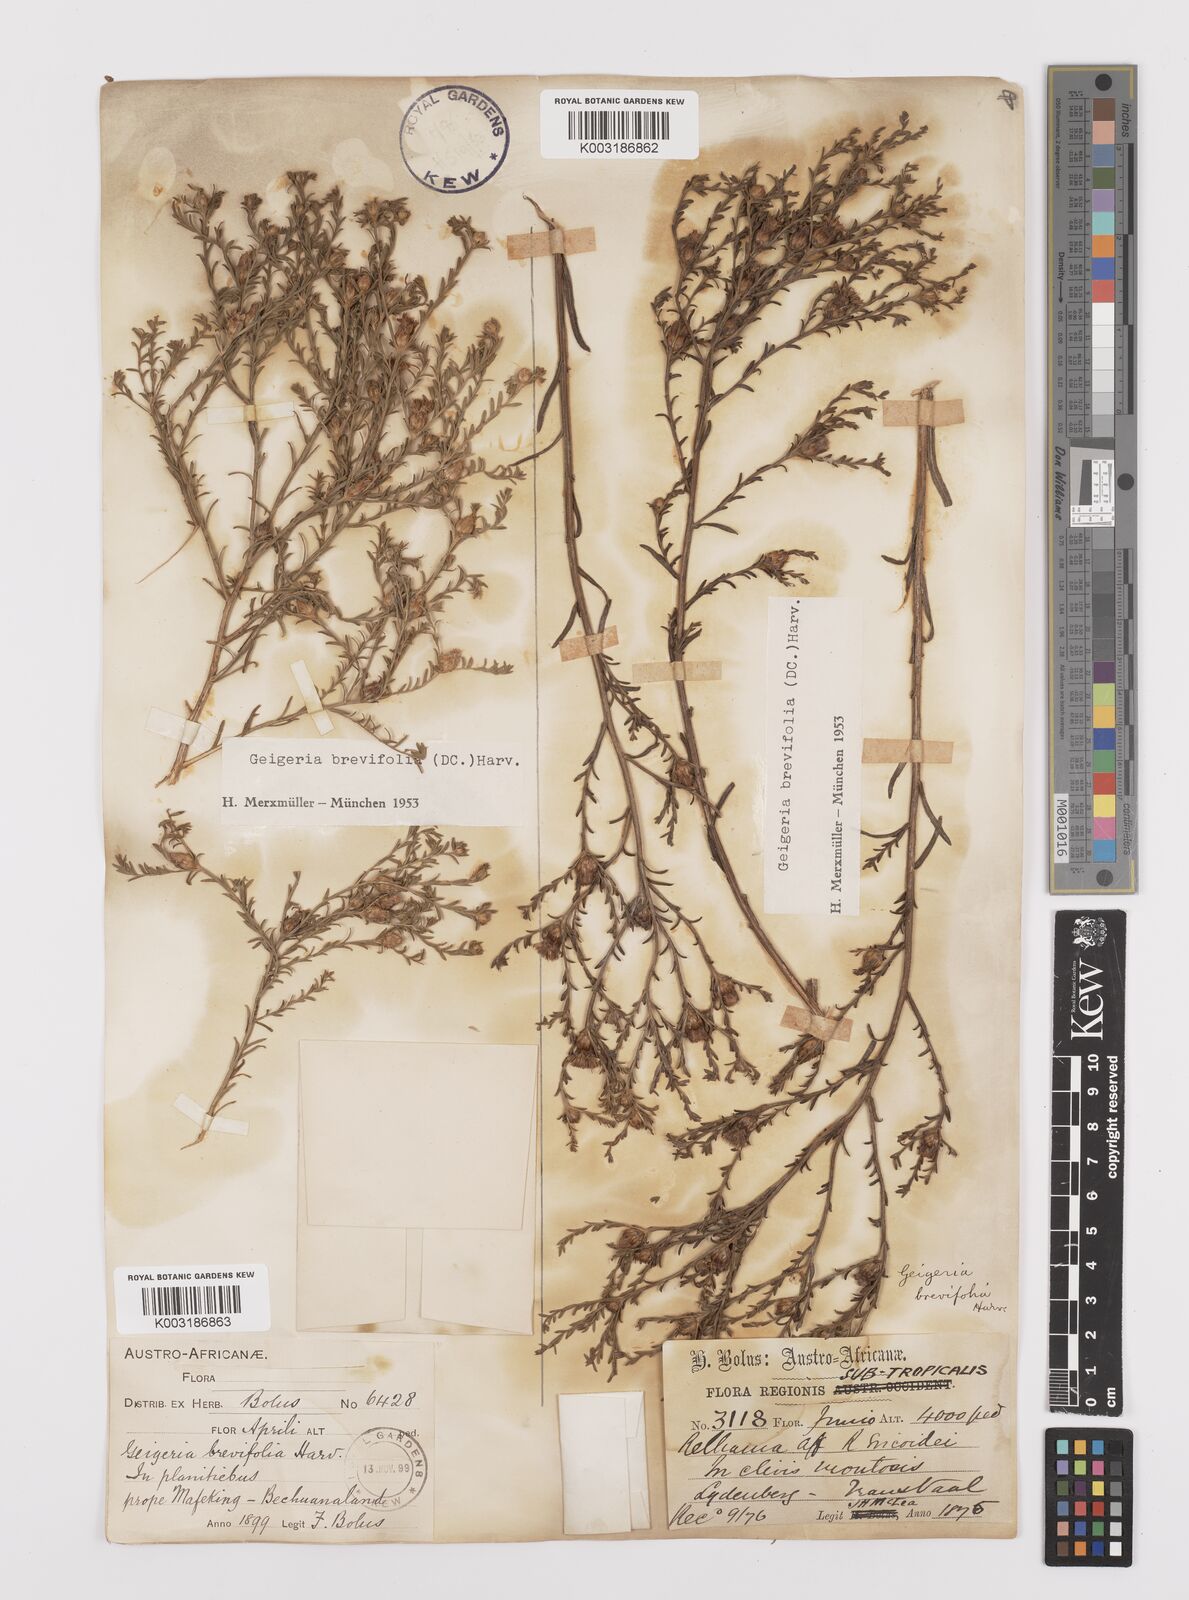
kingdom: Plantae
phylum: Tracheophyta
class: Magnoliopsida
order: Asterales
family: Asteraceae
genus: Geigeria
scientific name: Geigeria brevifolia
